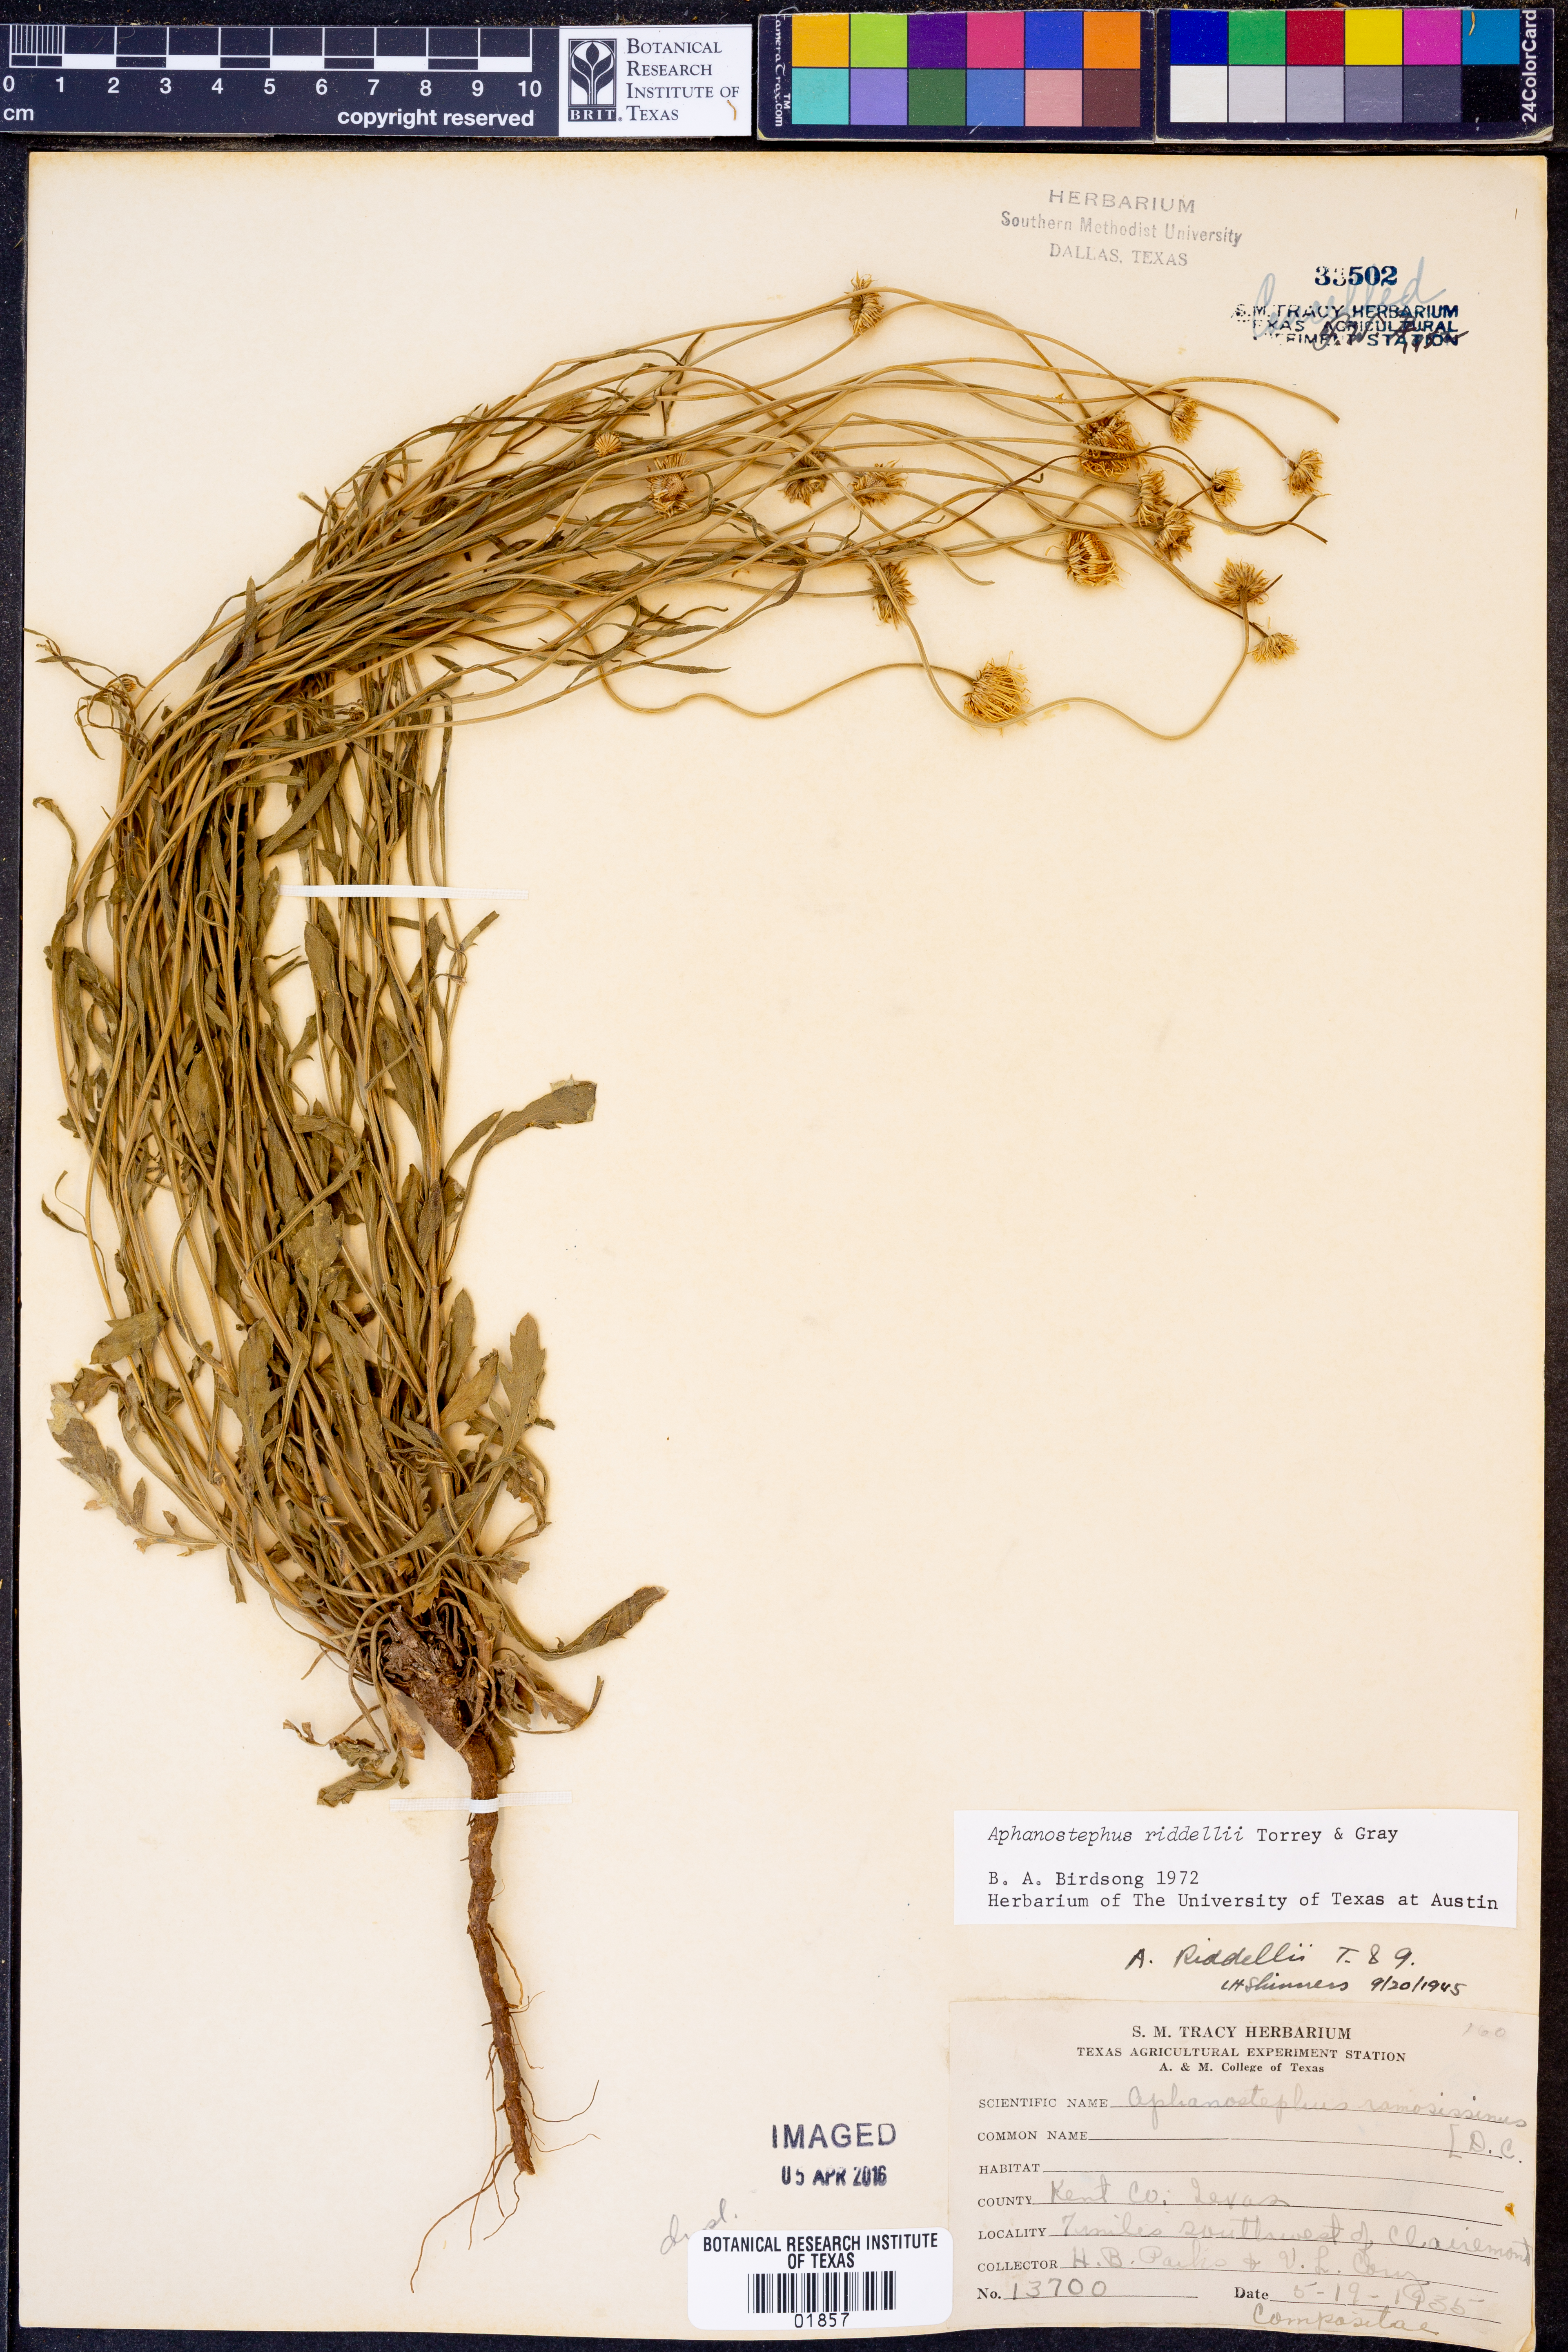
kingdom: Plantae
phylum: Tracheophyta
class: Magnoliopsida
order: Asterales
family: Asteraceae
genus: Aphanostephus
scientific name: Aphanostephus riddellii
